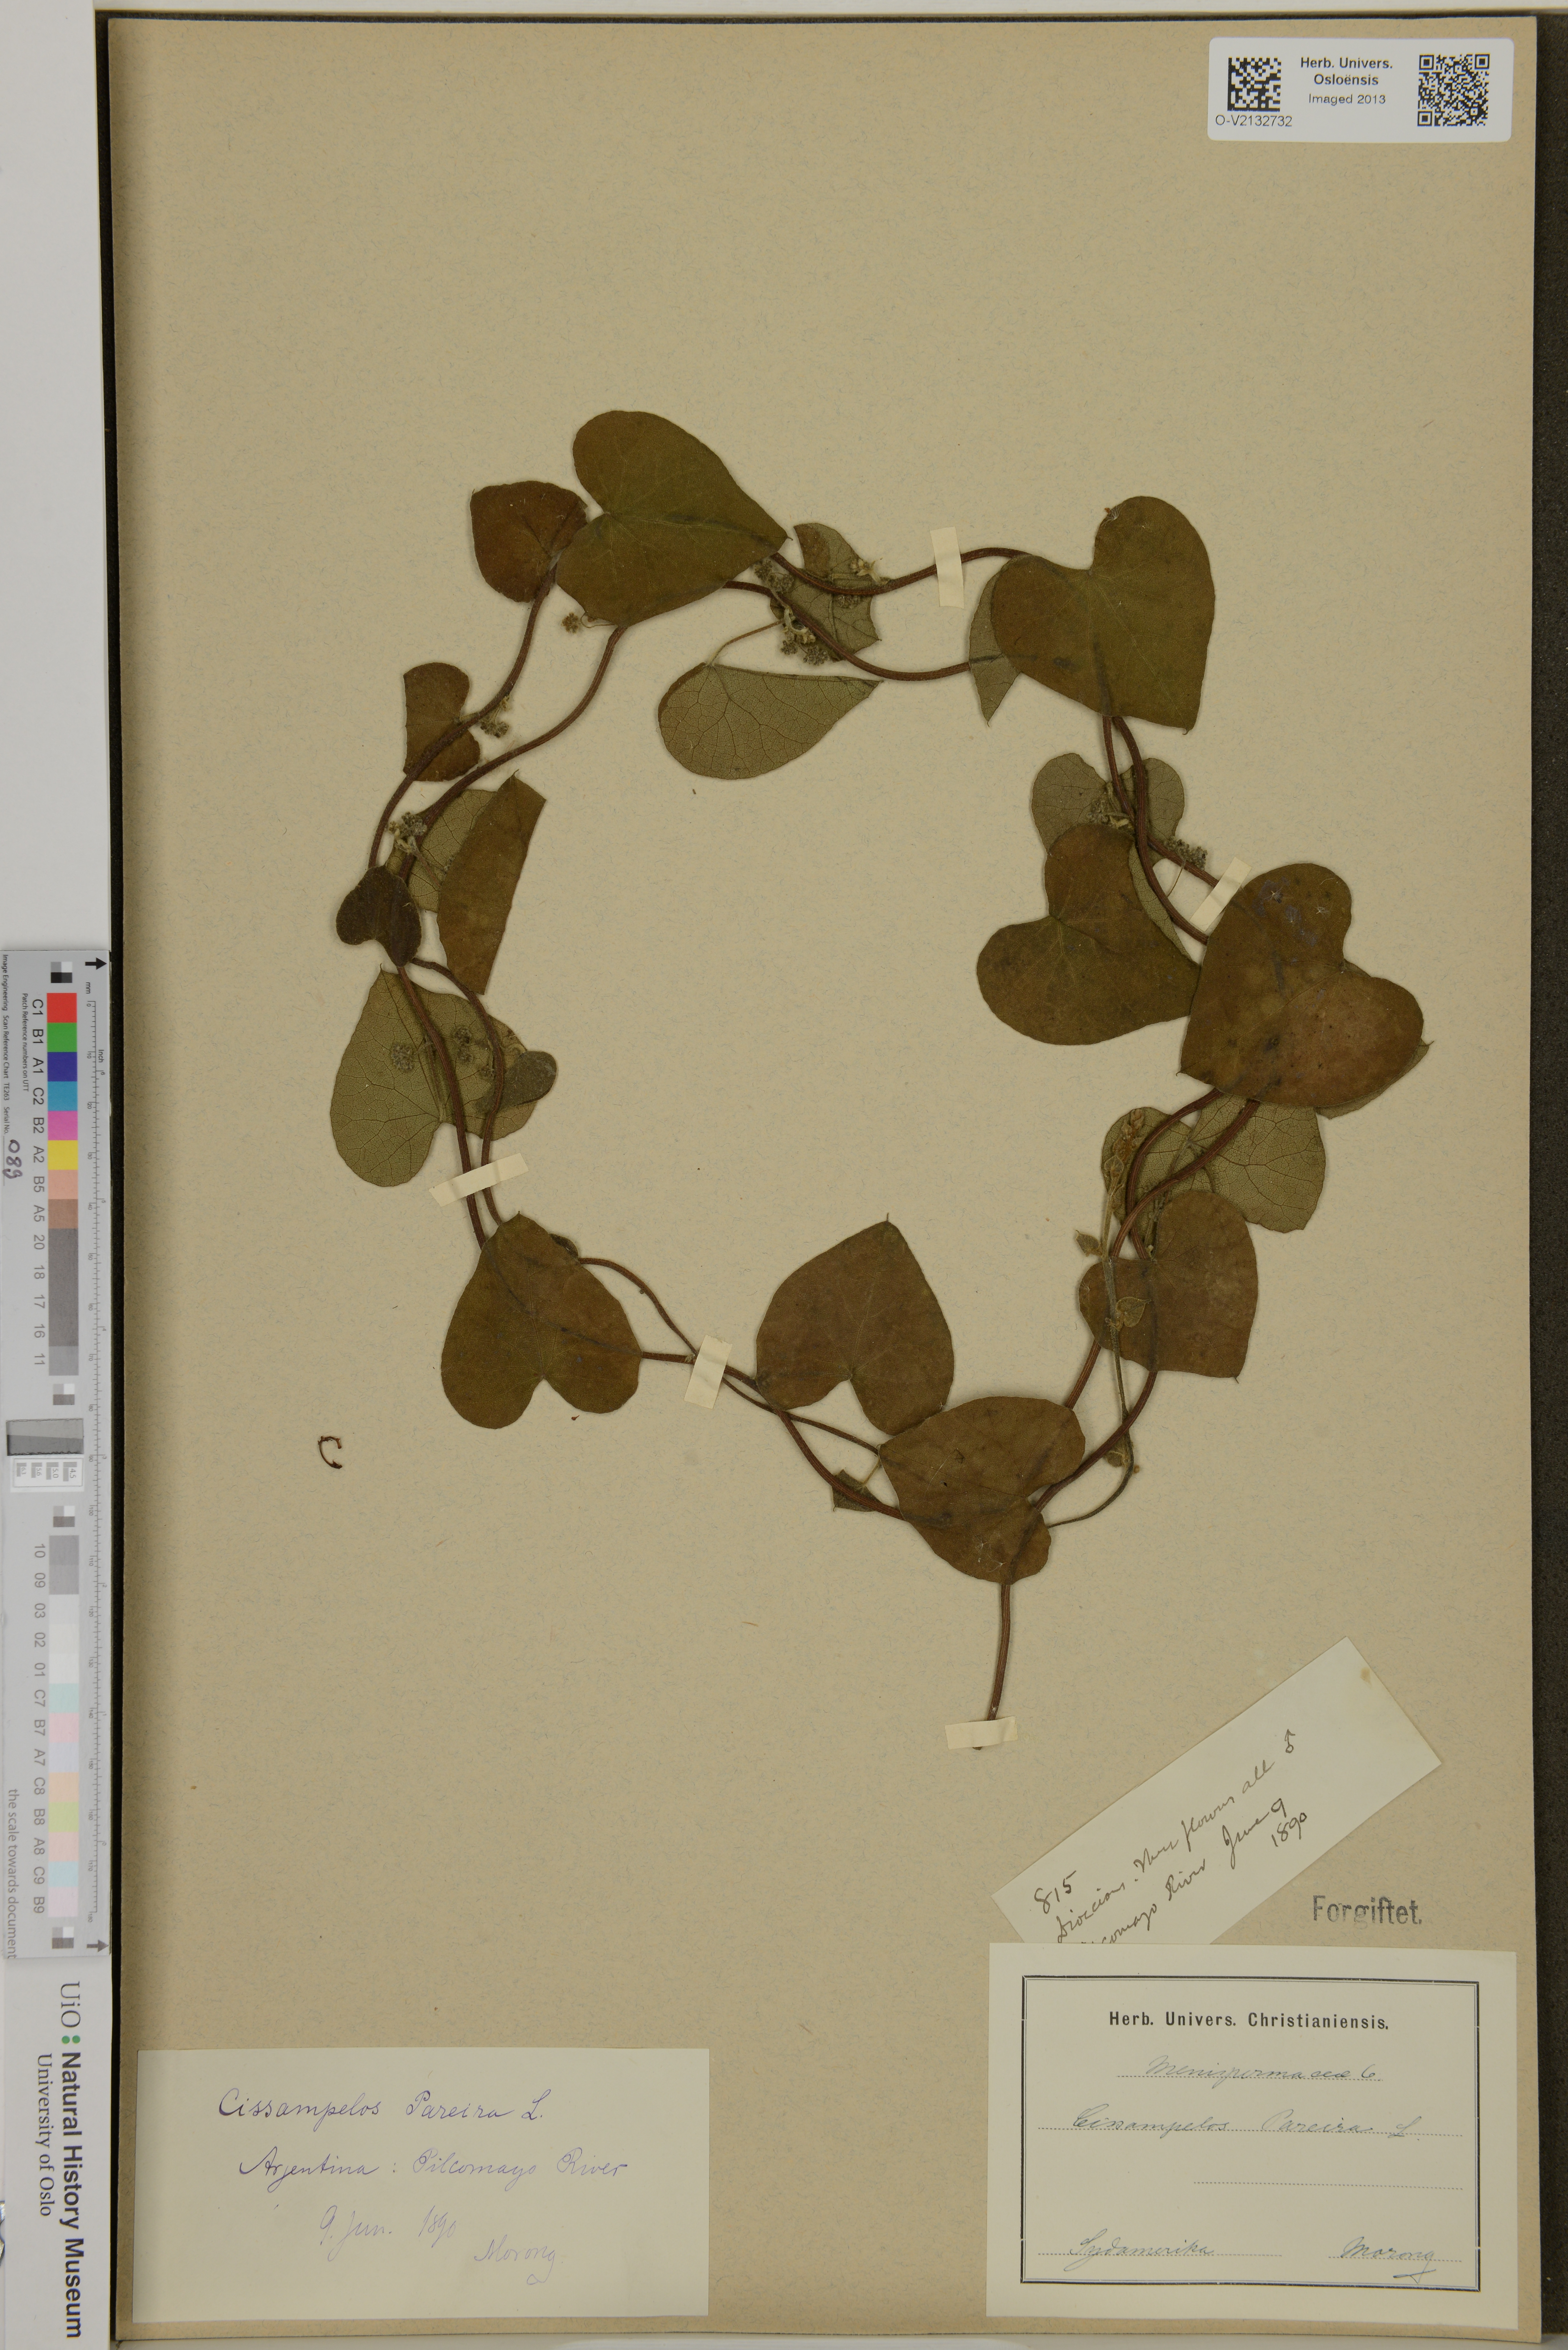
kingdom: Plantae
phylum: Tracheophyta
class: Magnoliopsida
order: Ranunculales
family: Menispermaceae
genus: Cissampelos
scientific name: Cissampelos pareira
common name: Velvetleaf
